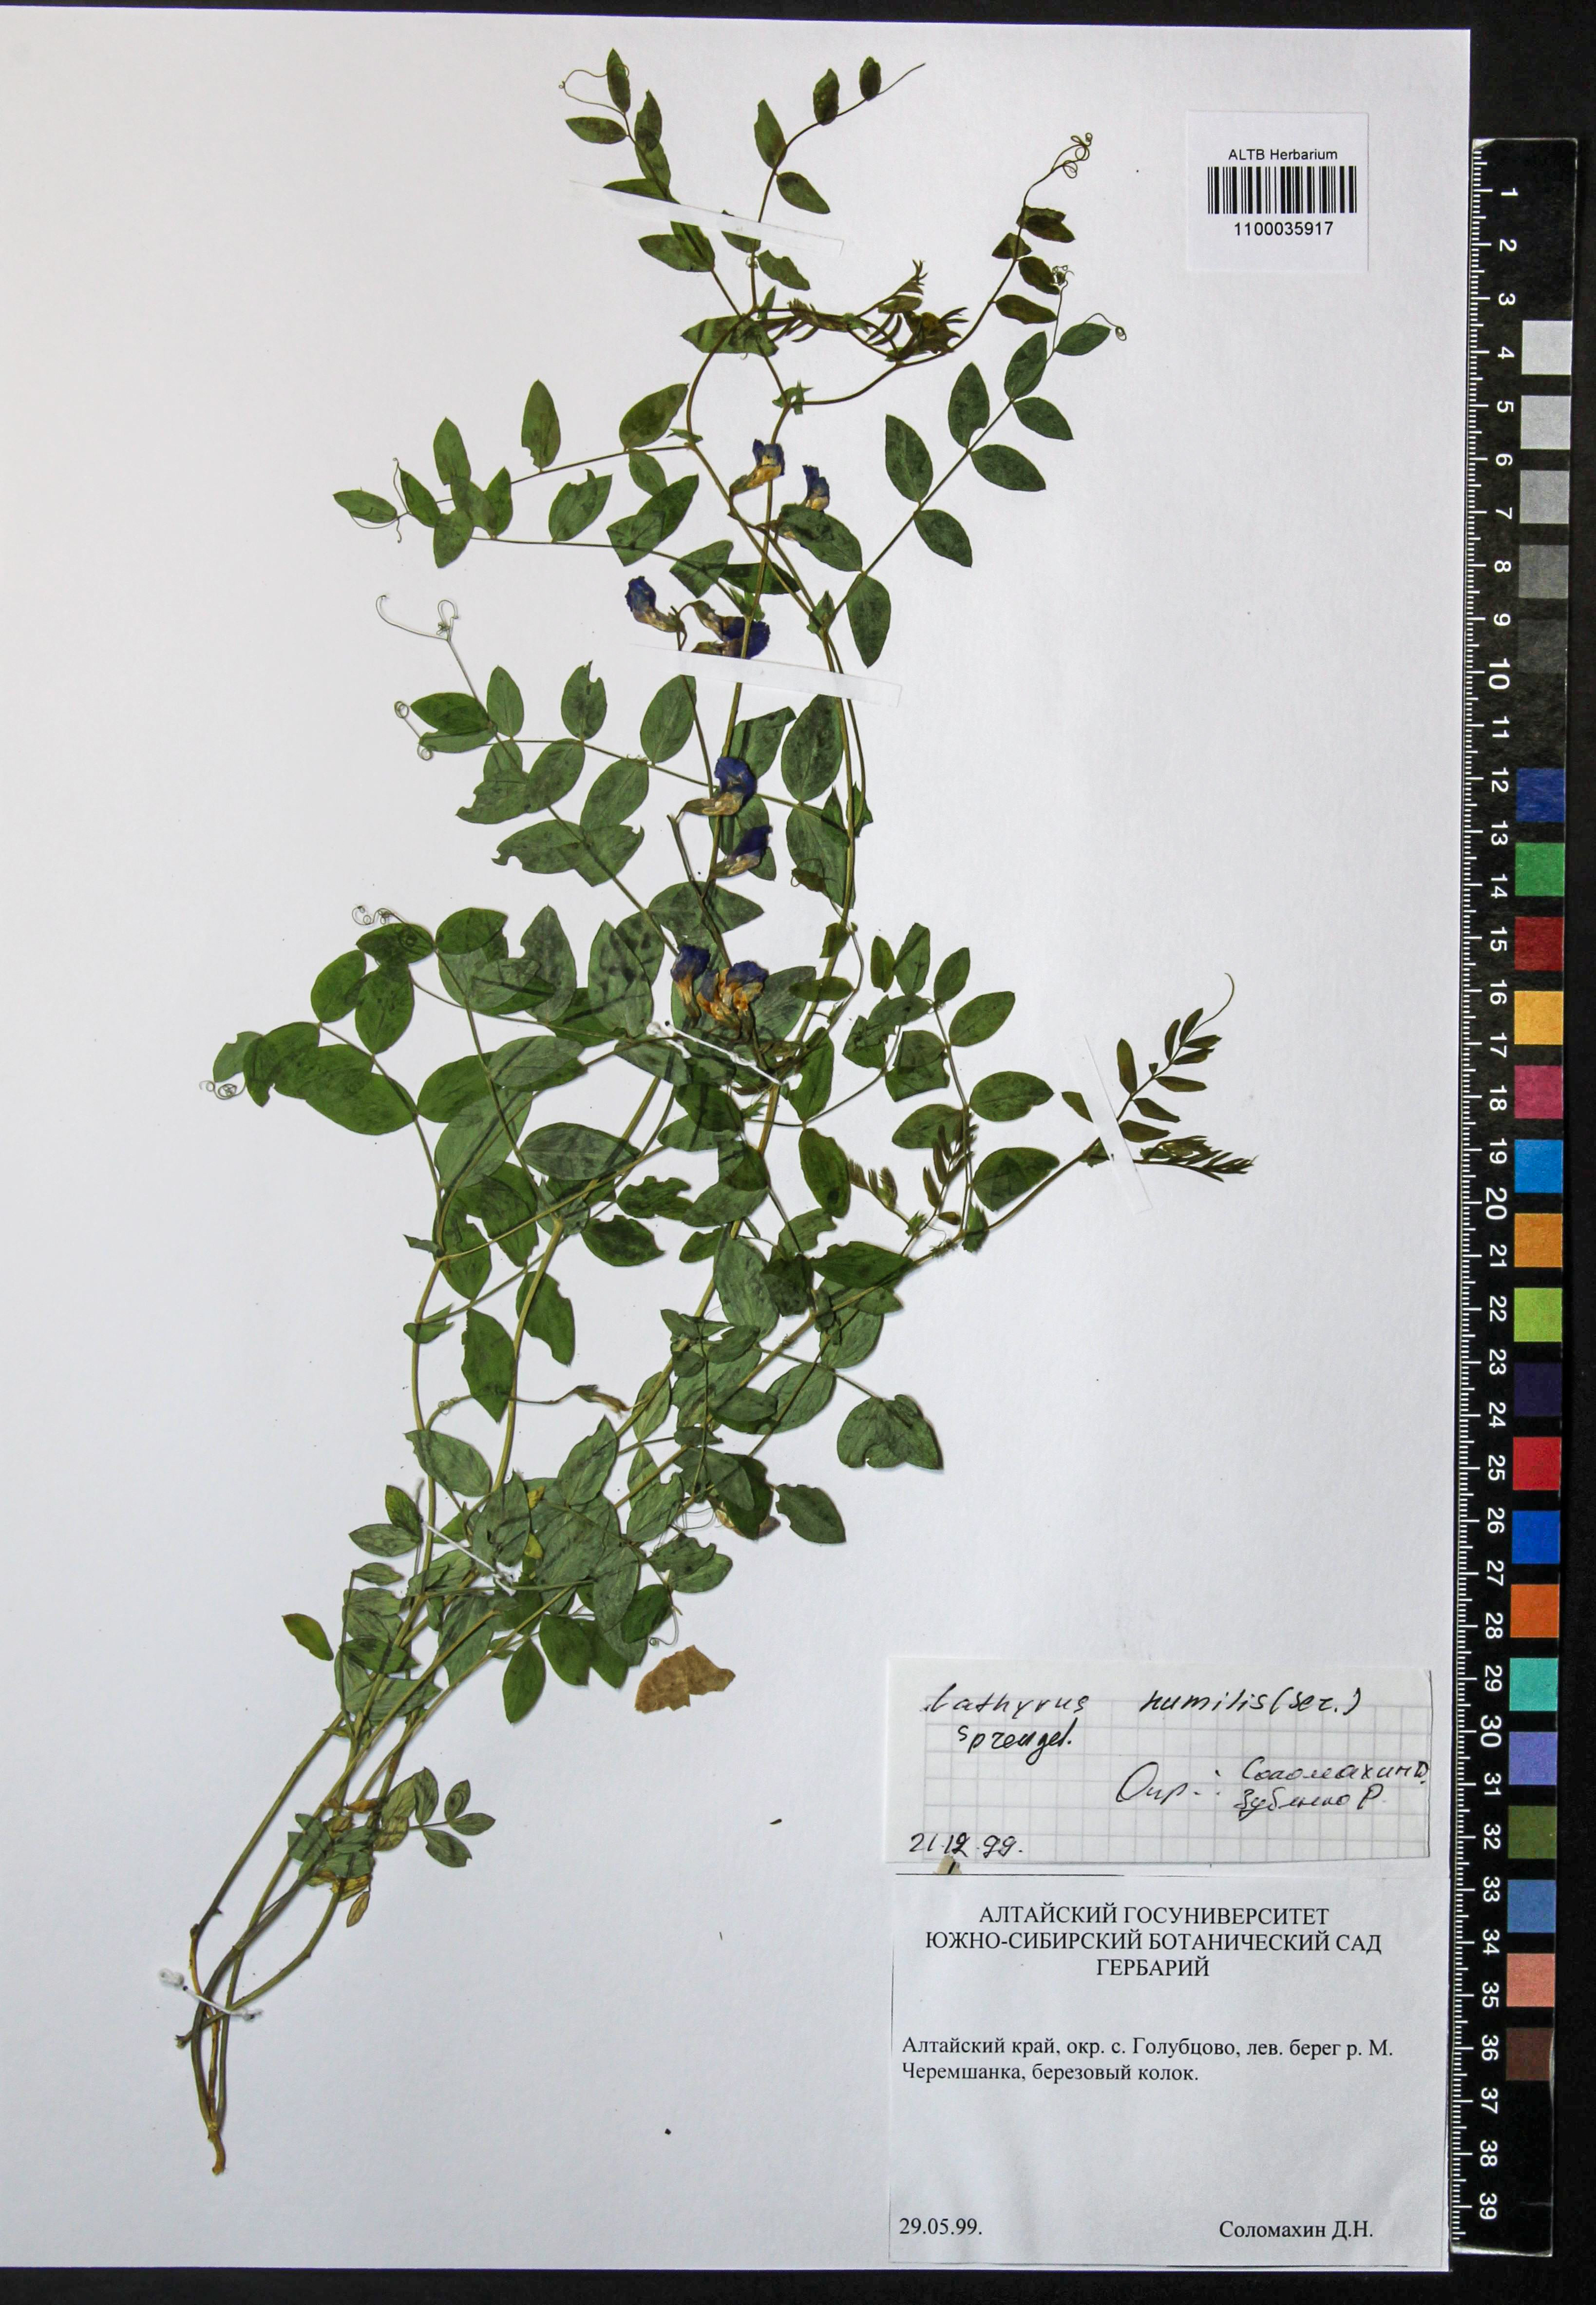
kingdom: Plantae
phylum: Tracheophyta
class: Magnoliopsida
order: Fabales
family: Fabaceae
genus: Lathyrus
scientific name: Lathyrus humilis
